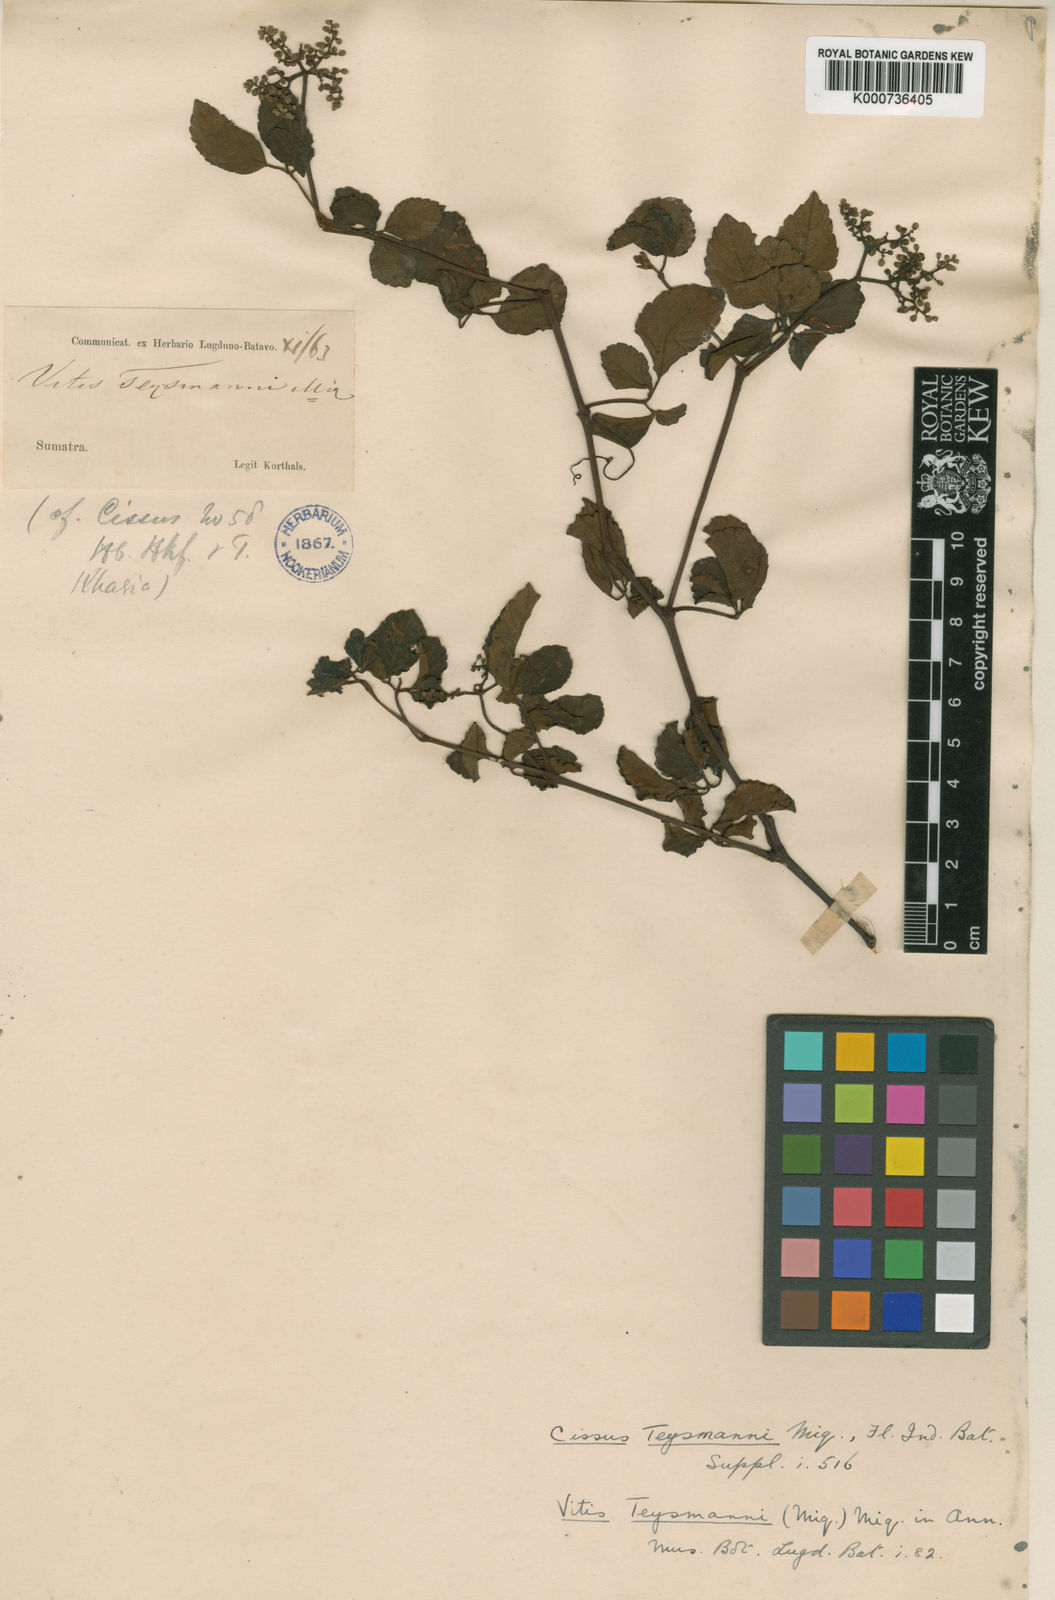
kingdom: Plantae
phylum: Tracheophyta
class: Magnoliopsida
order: Vitales
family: Vitaceae
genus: Causonis
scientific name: Causonis trifolia
